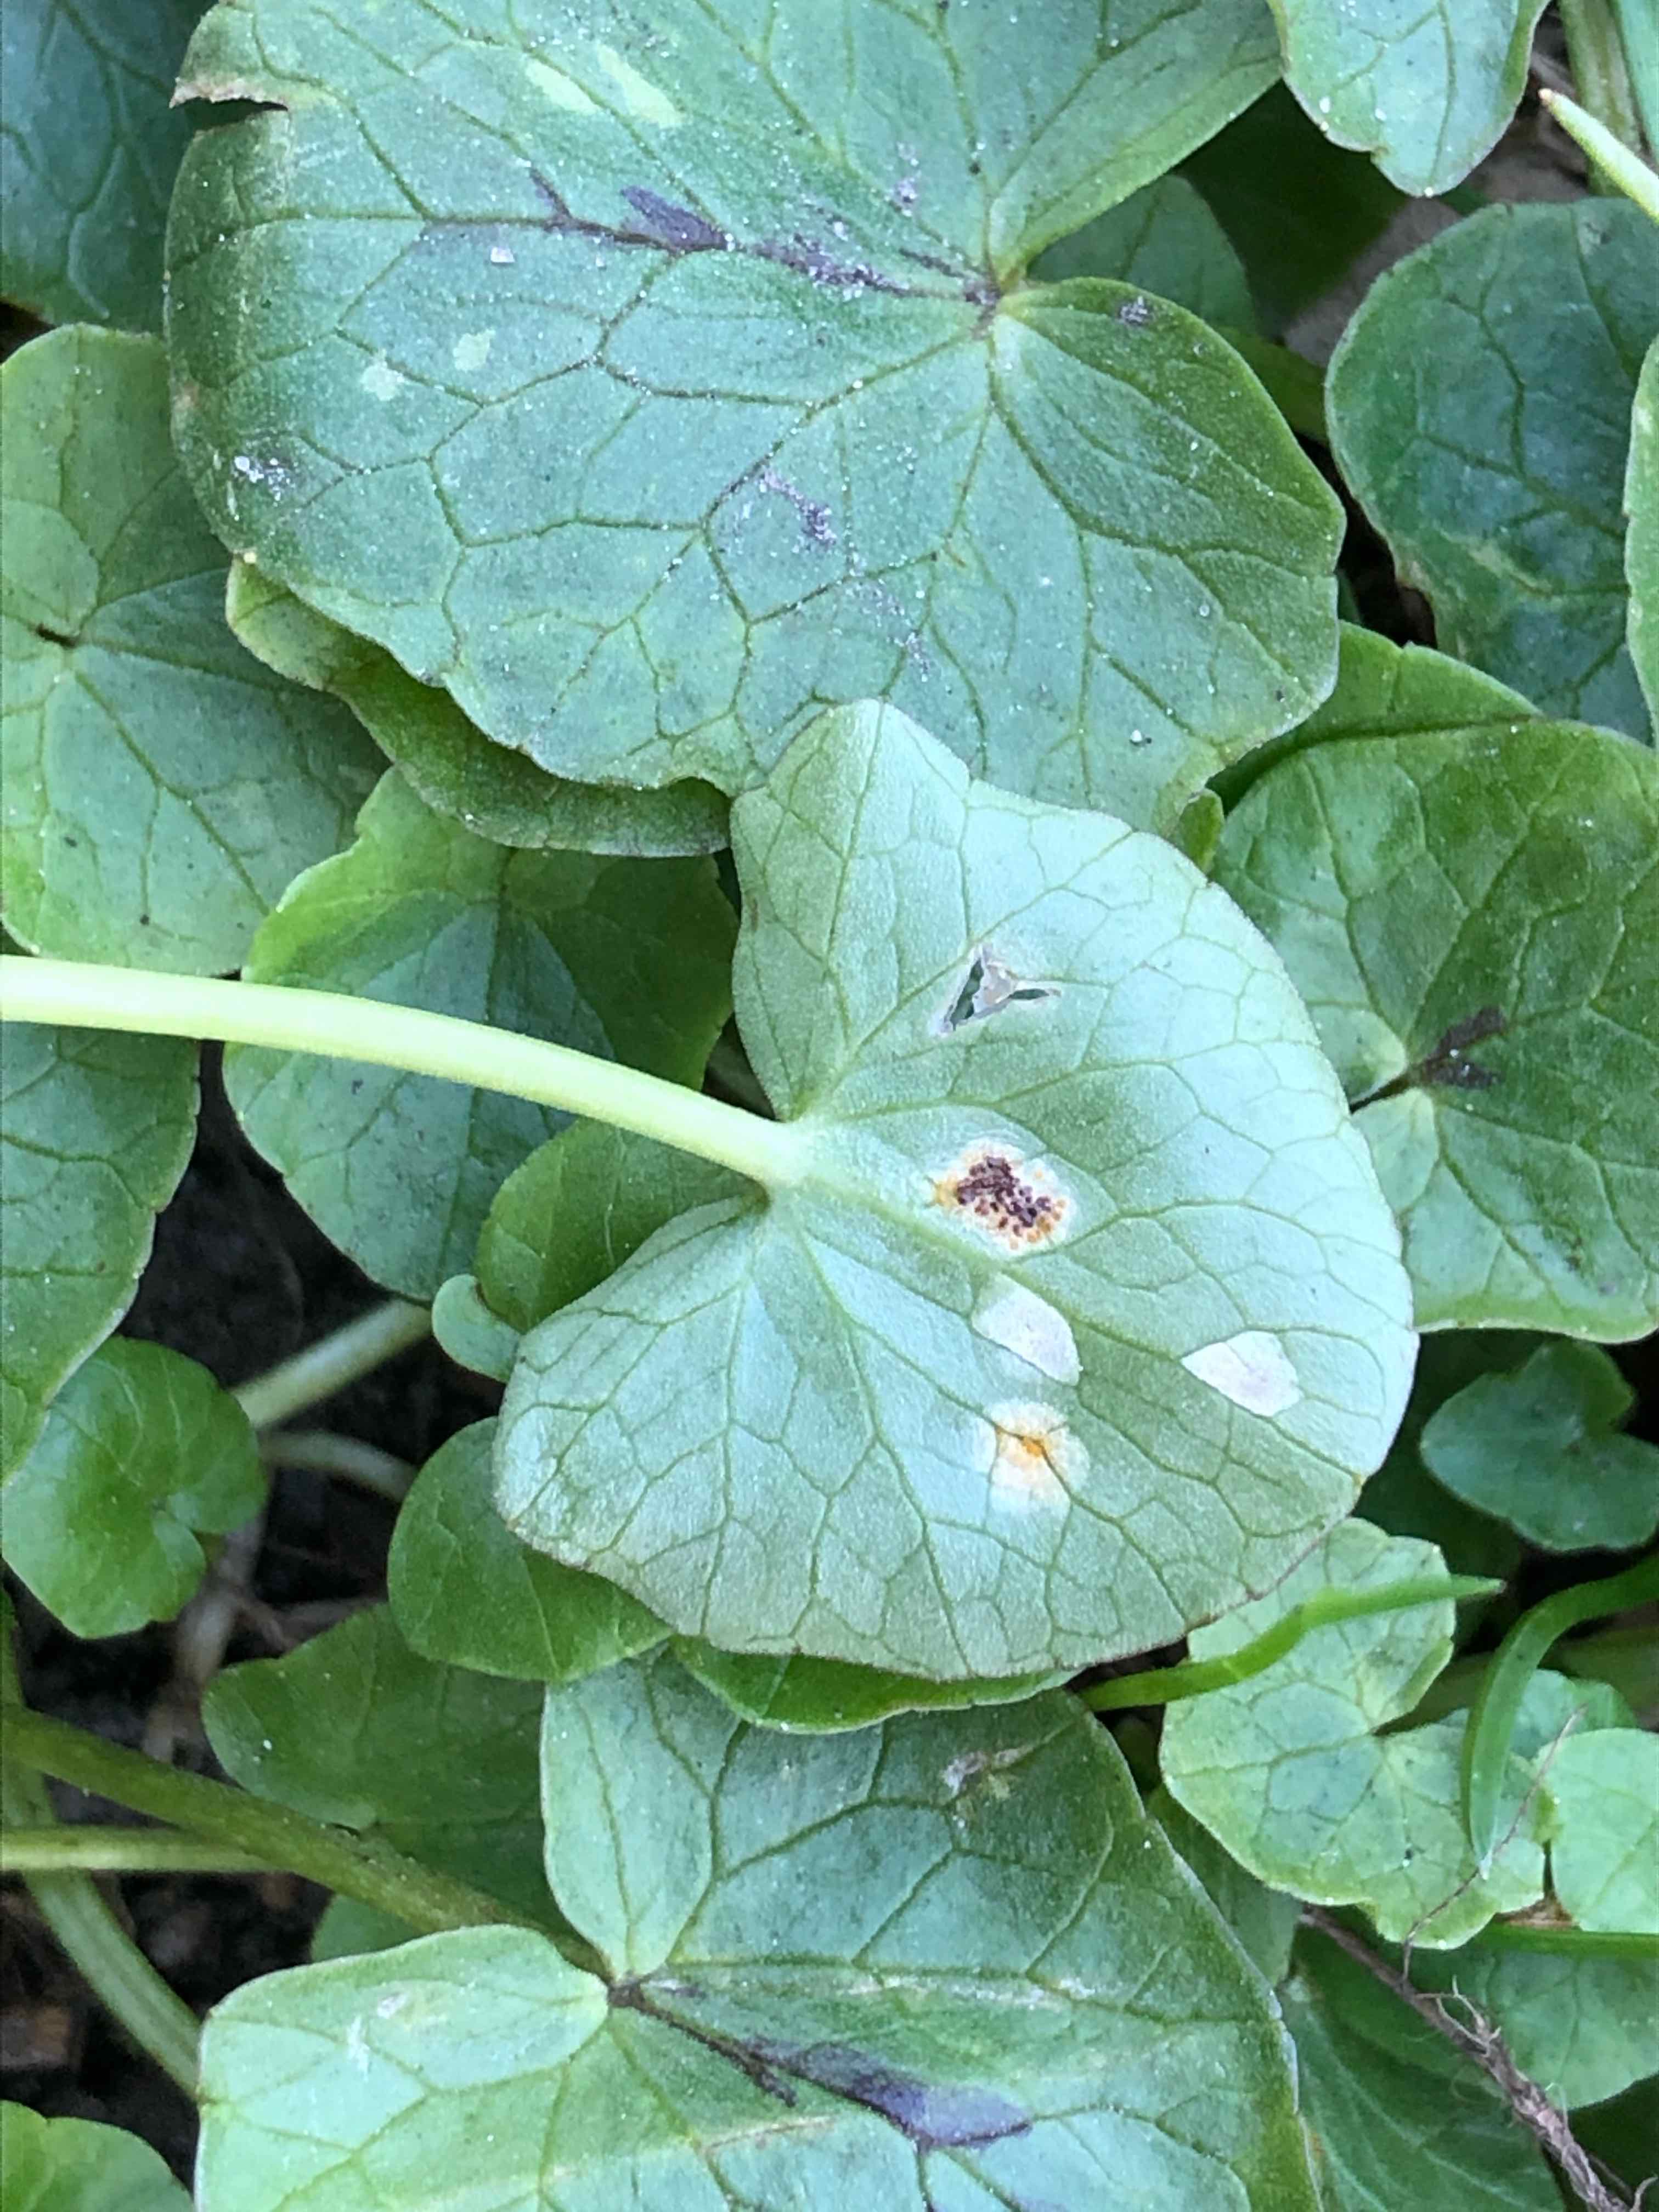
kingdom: Fungi
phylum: Basidiomycota
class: Pucciniomycetes
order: Pucciniales
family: Pucciniaceae
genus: Uromyces
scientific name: Uromyces ficariae
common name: vorterod-encellerust
